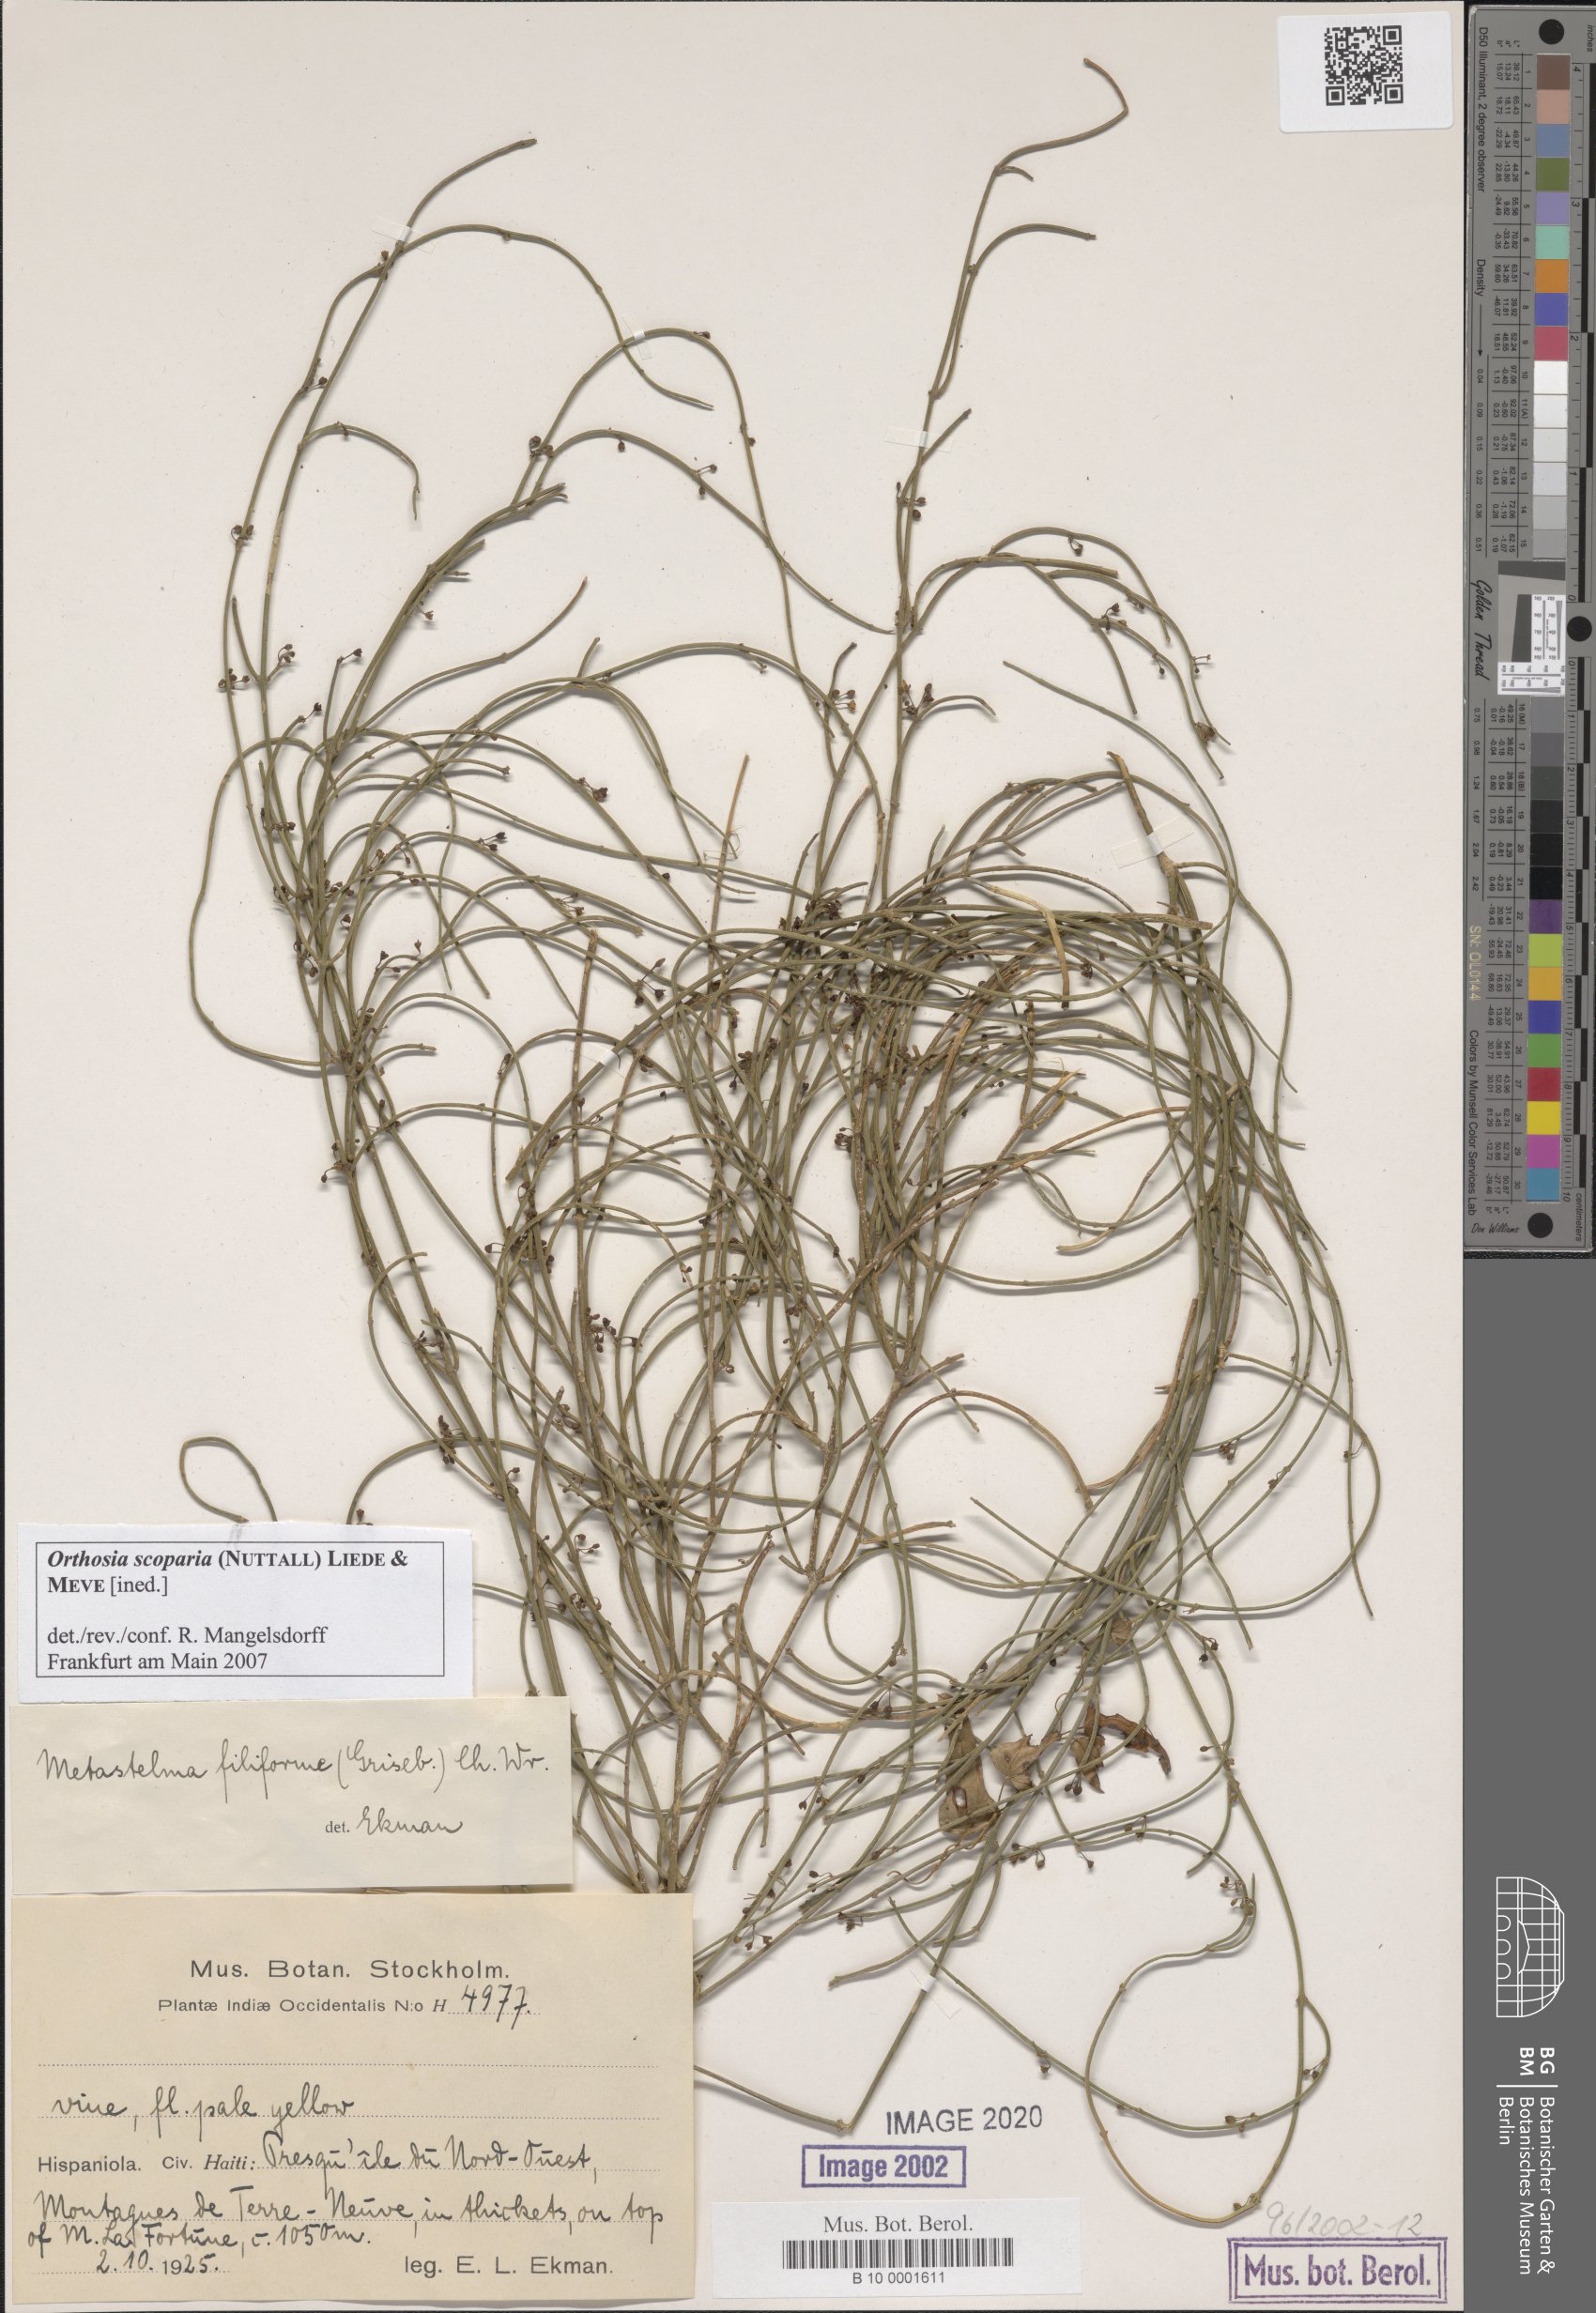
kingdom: Plantae
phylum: Tracheophyta
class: Magnoliopsida
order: Gentianales
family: Apocynaceae
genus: Orthosia
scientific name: Orthosia scoparia
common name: Leafless swallow-wort
